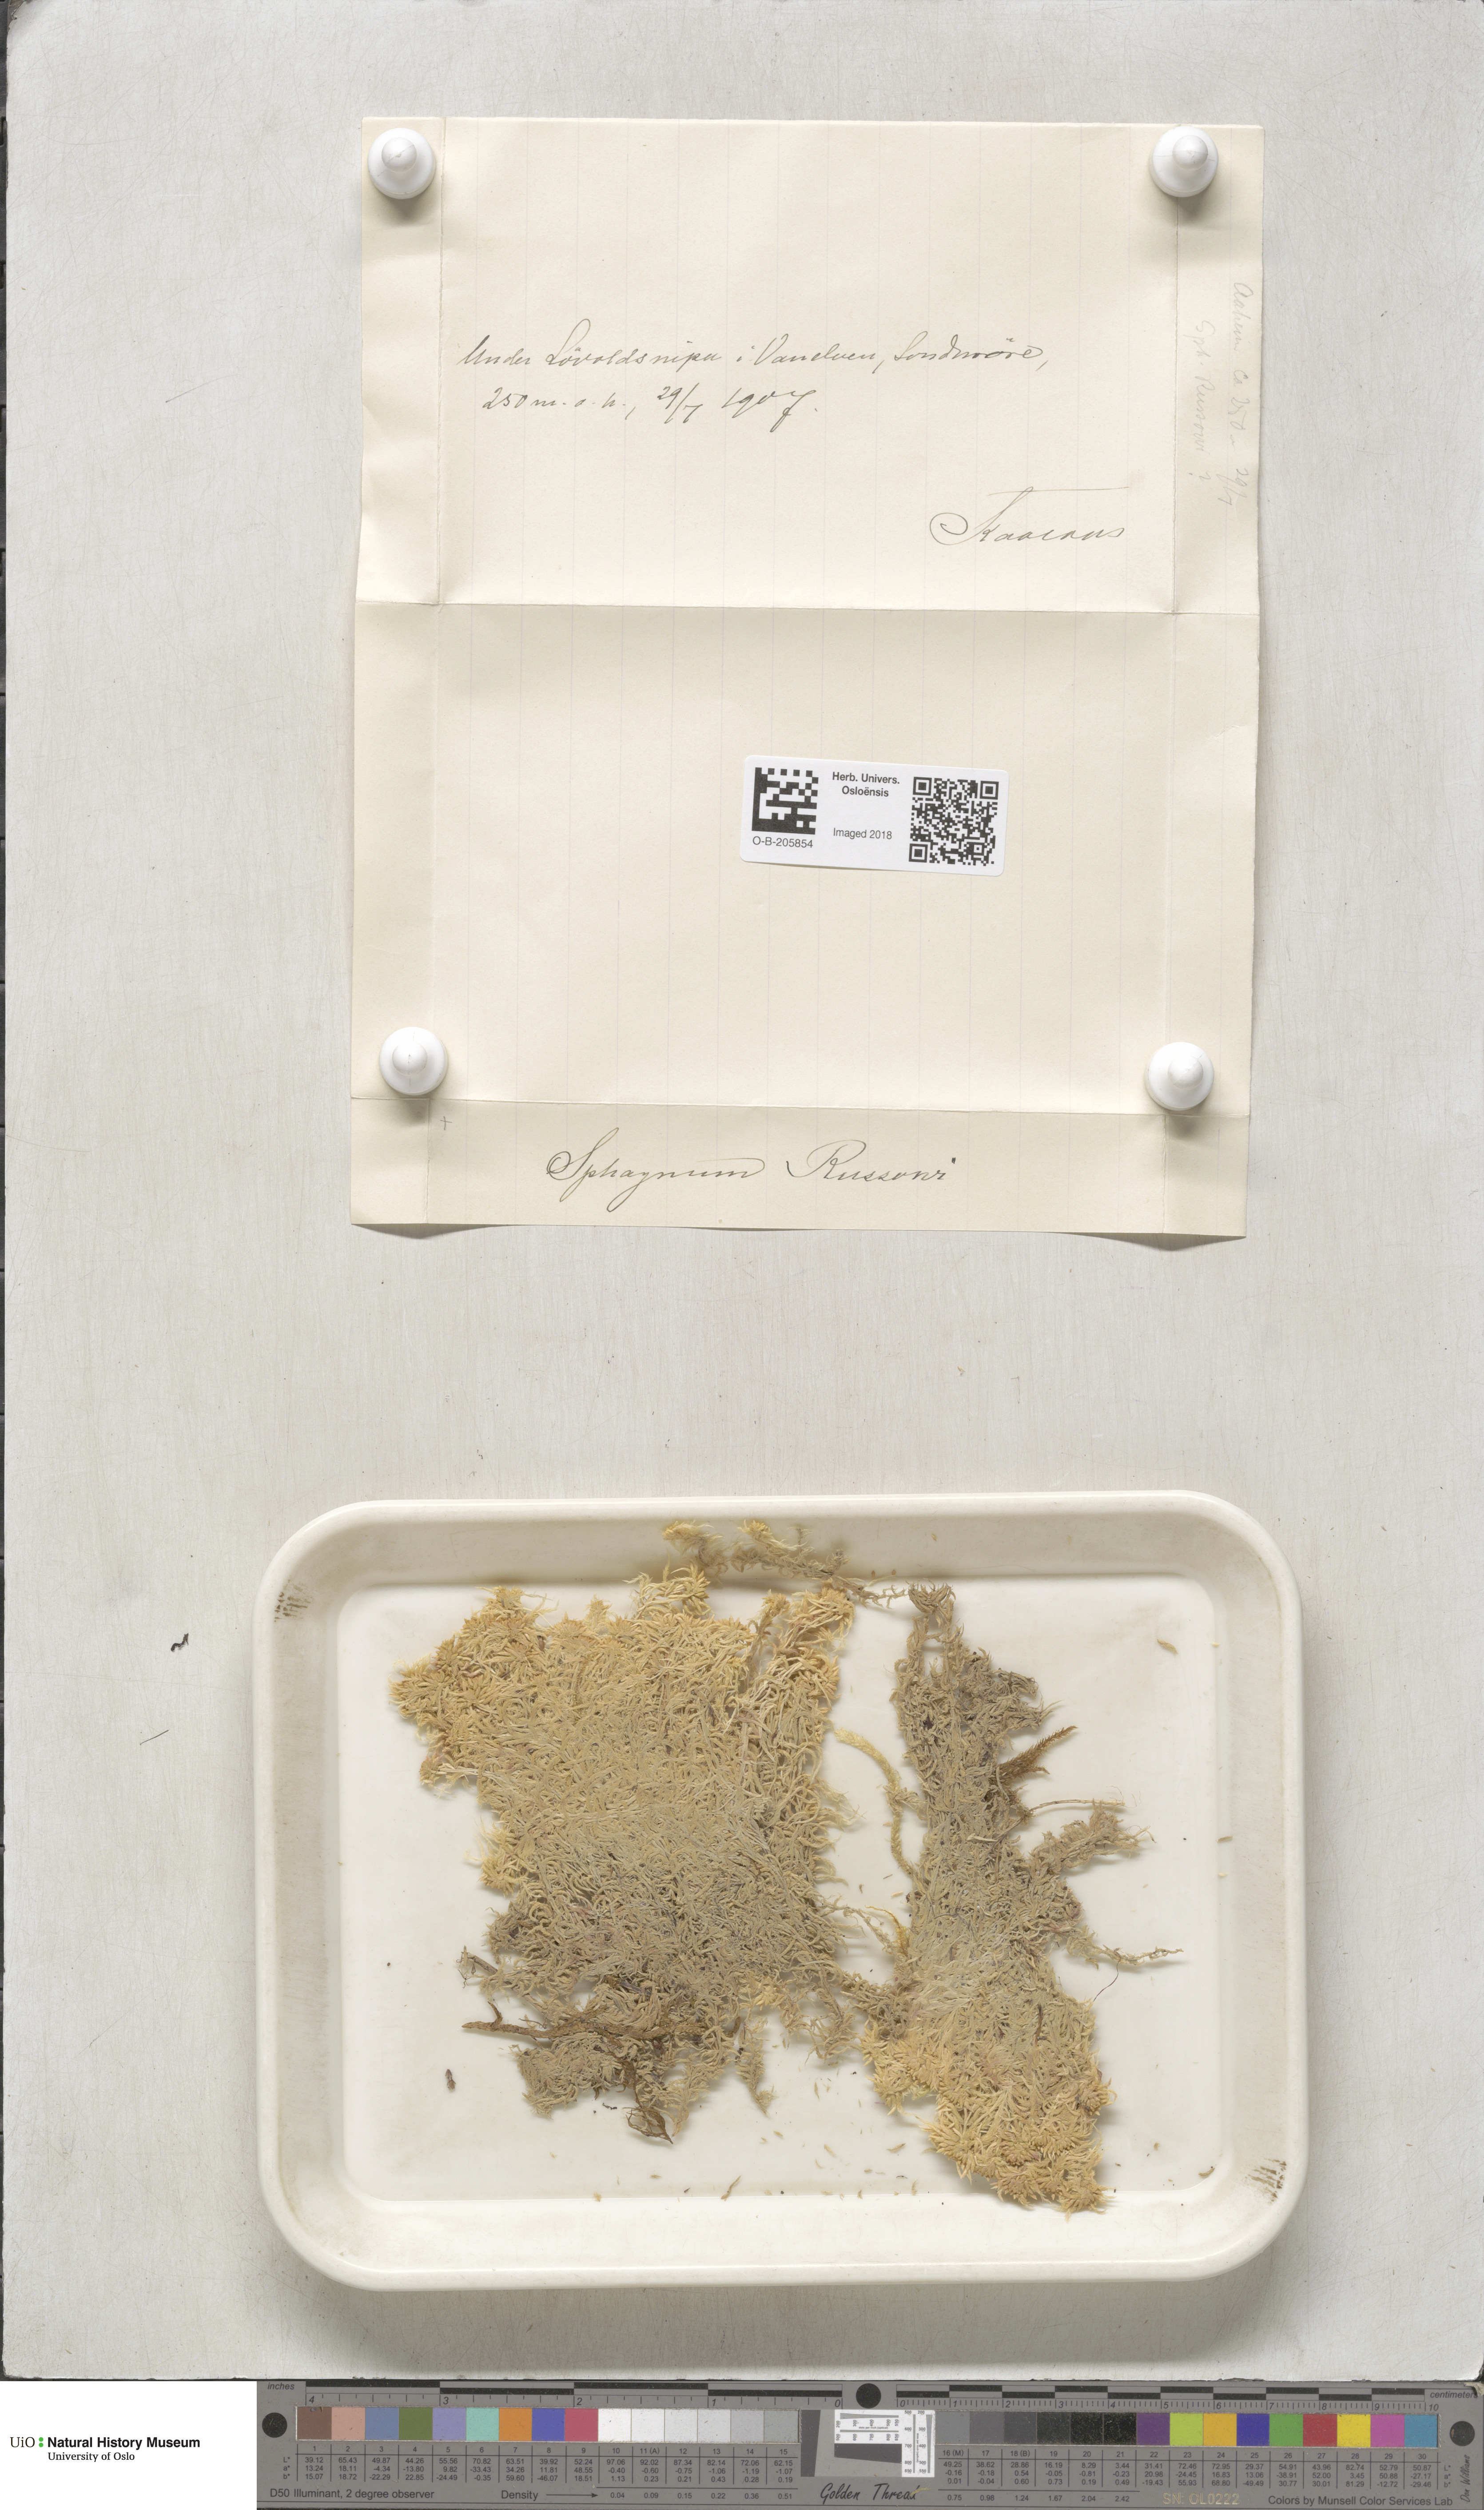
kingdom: Plantae
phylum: Bryophyta
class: Sphagnopsida
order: Sphagnales
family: Sphagnaceae
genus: Sphagnum
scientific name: Sphagnum russowii
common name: Russow's peat moss
